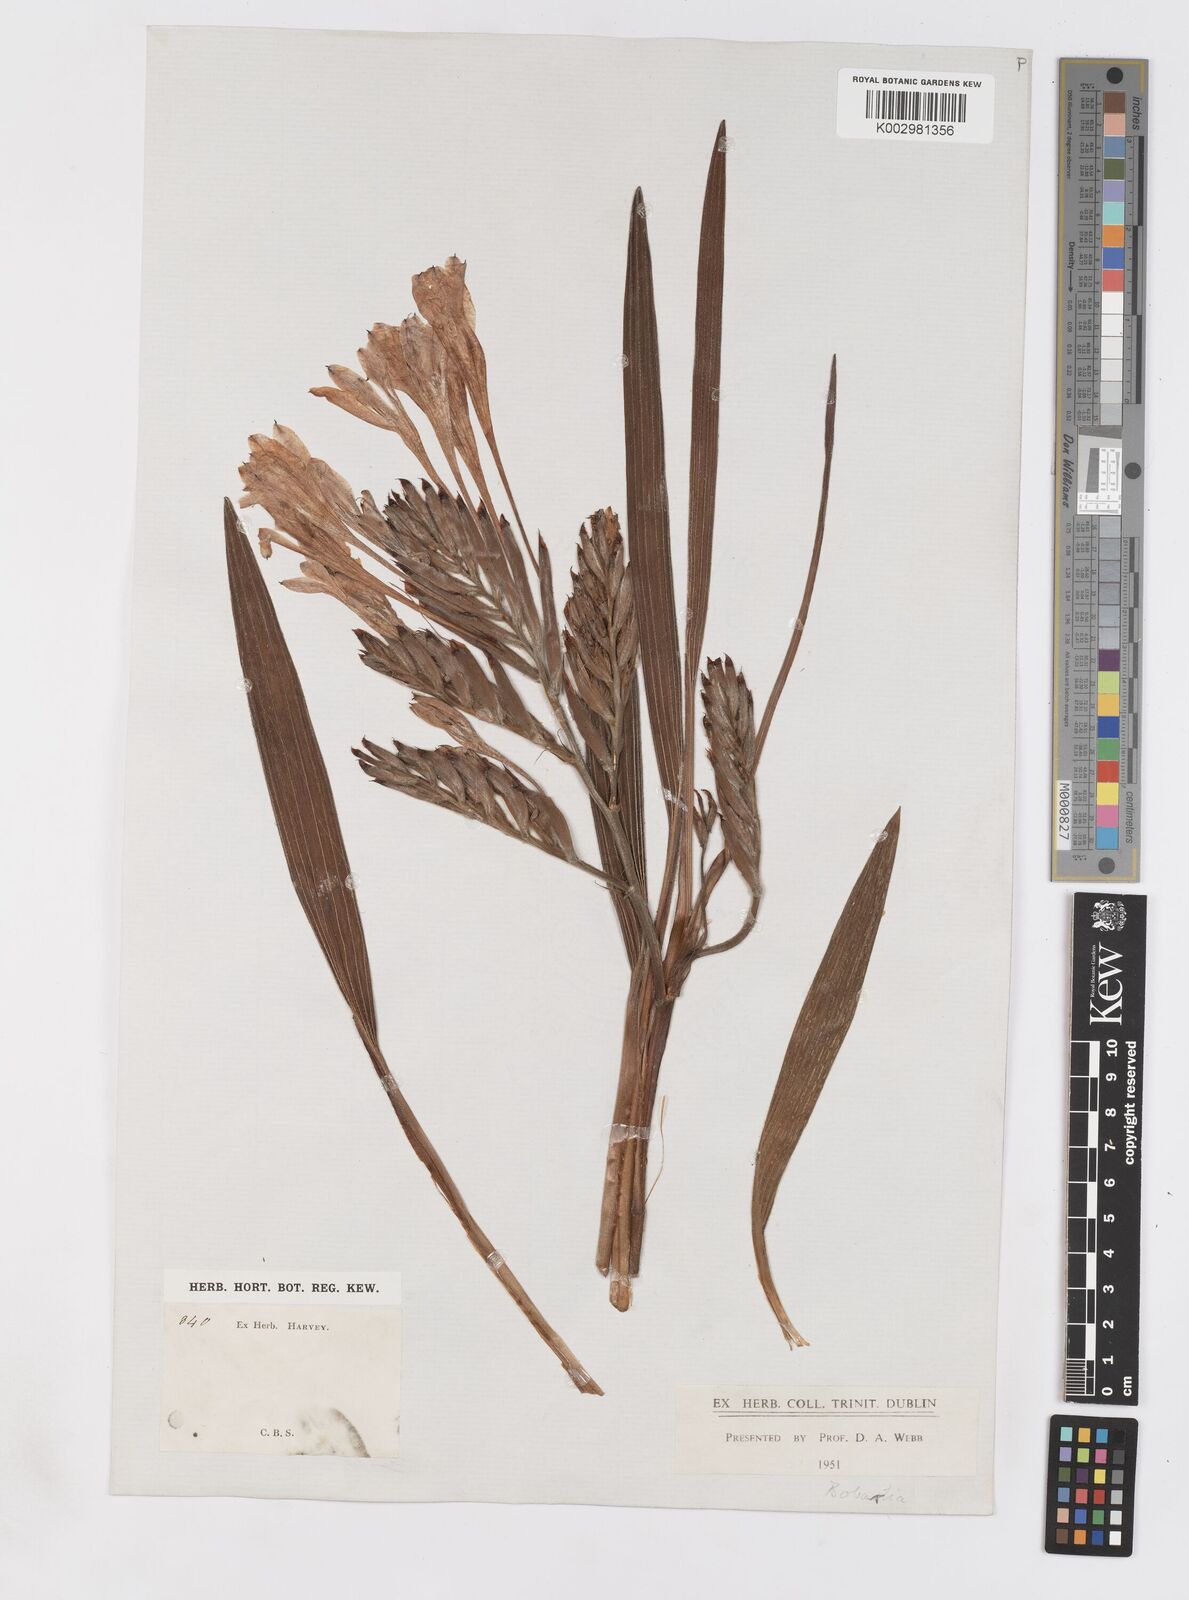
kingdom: Plantae
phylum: Tracheophyta
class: Liliopsida
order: Asparagales
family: Iridaceae
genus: Babiana
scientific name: Babiana
